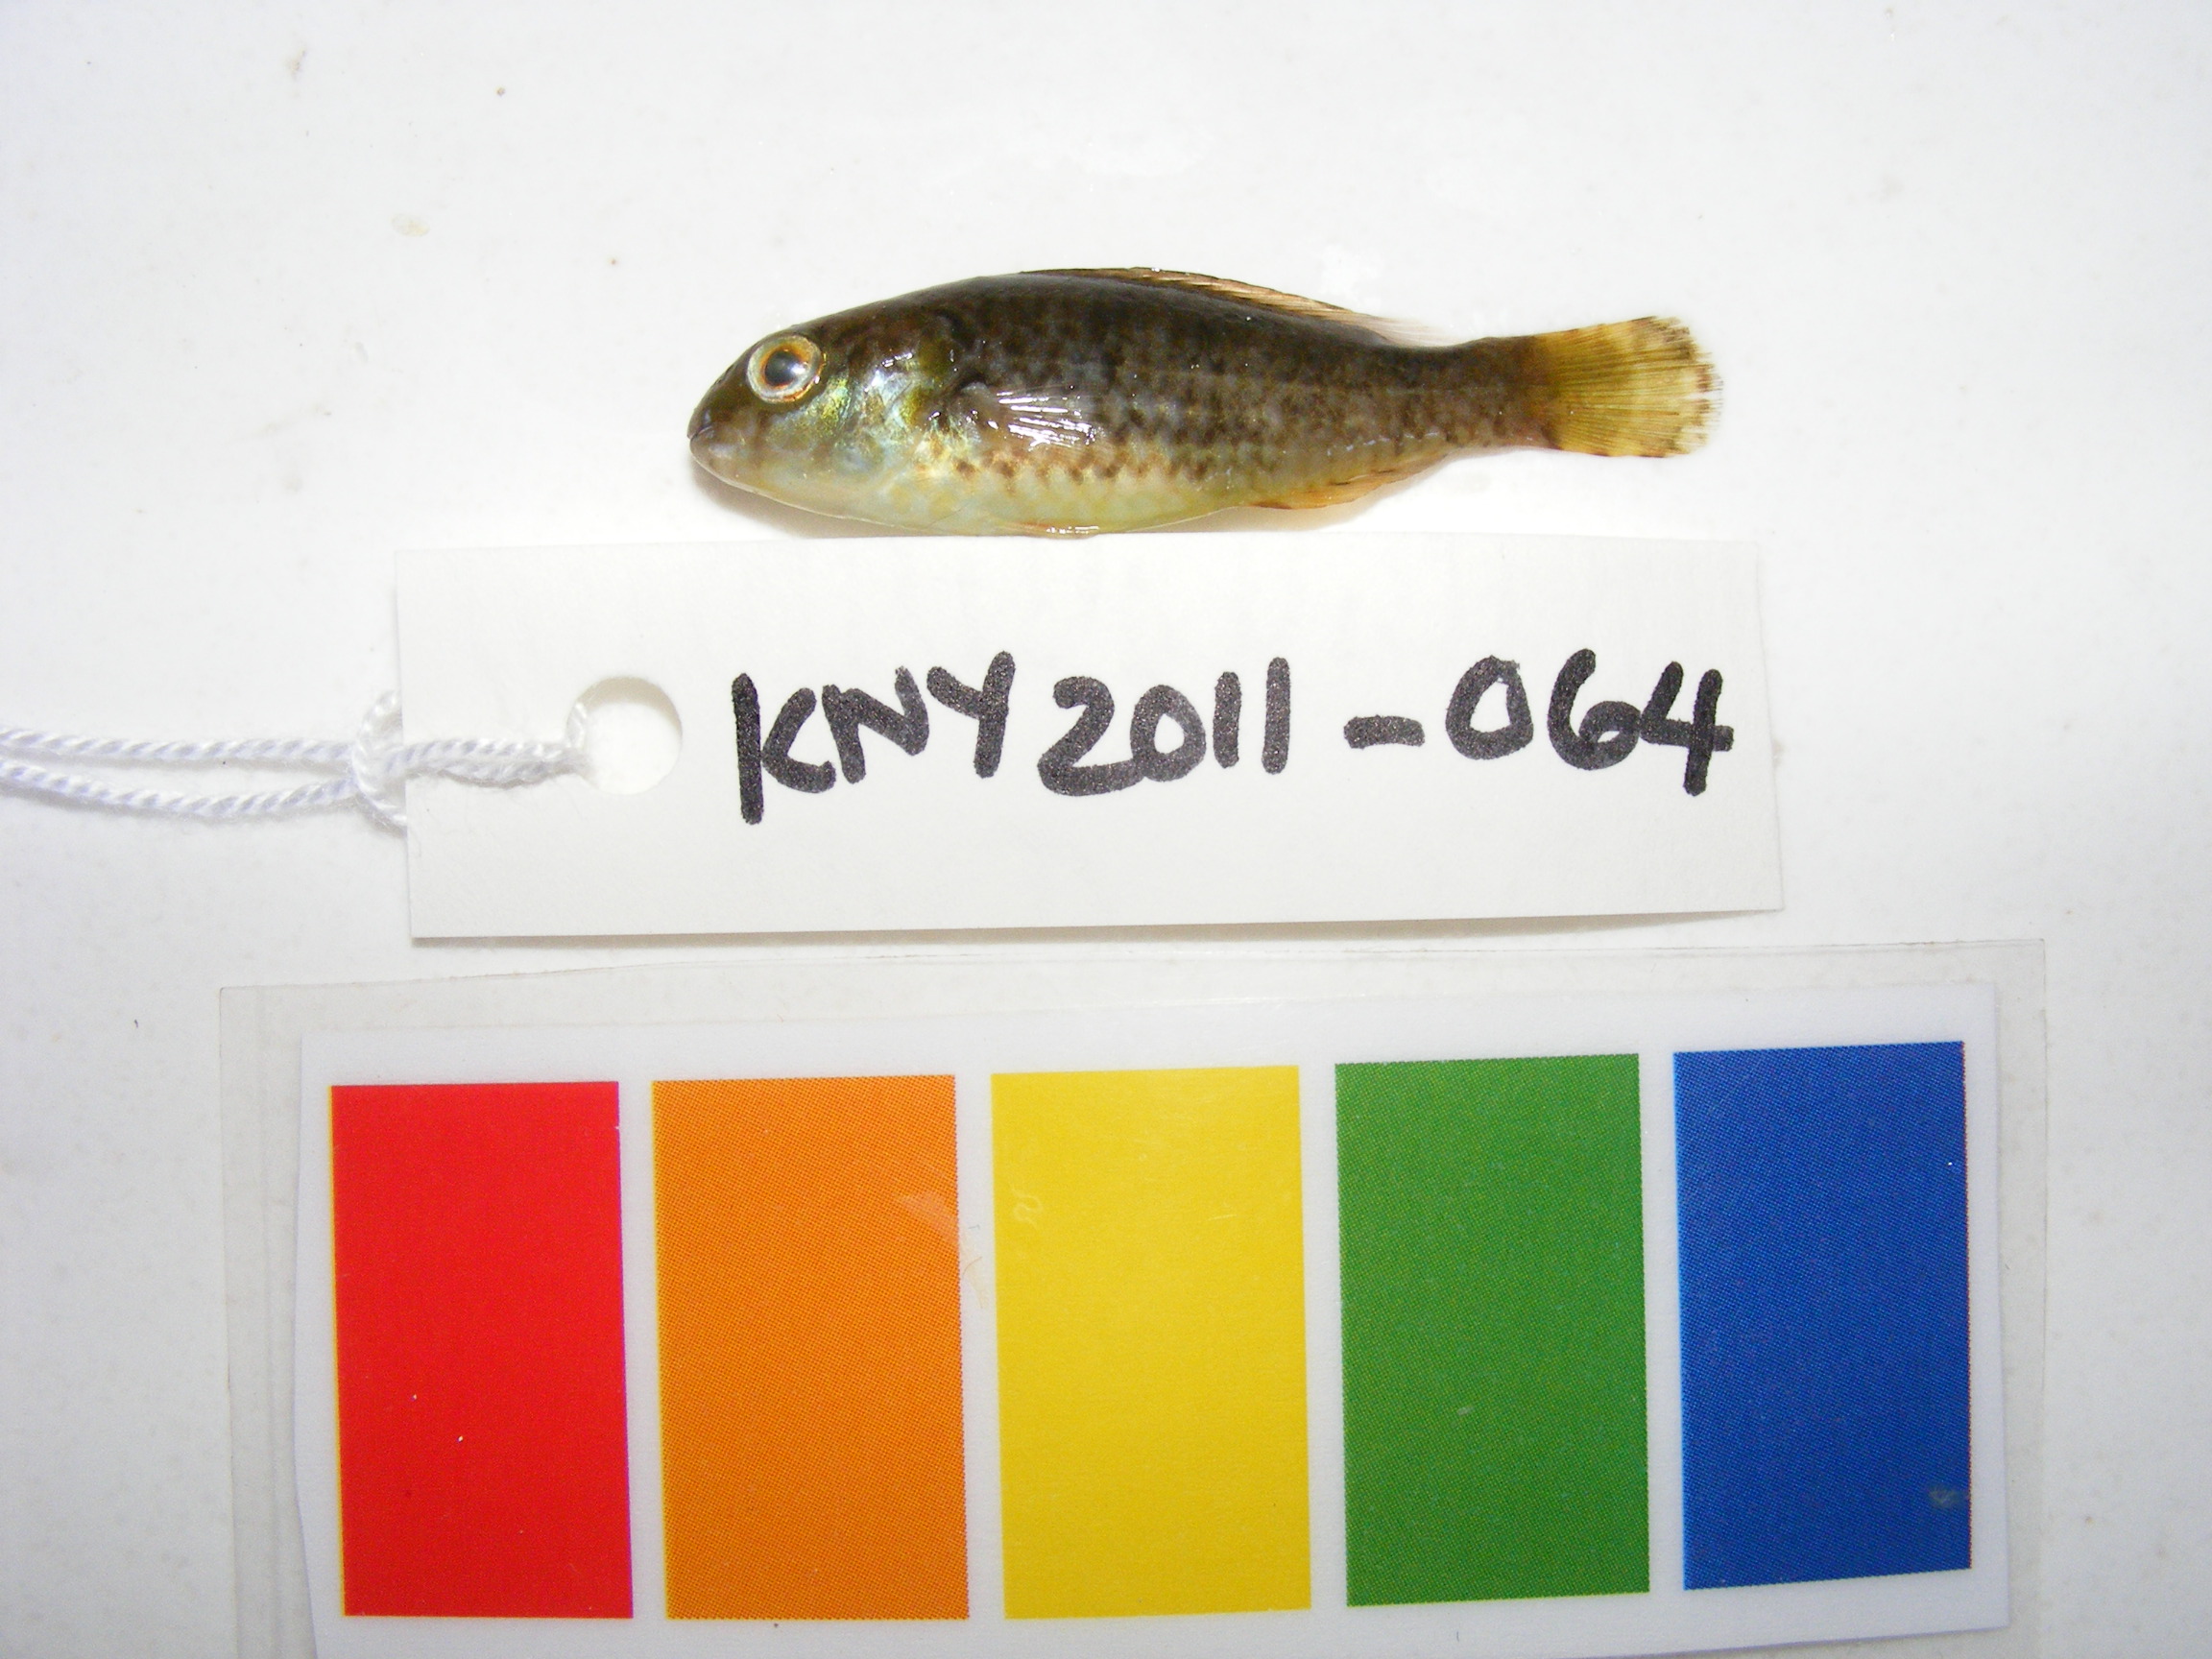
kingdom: Animalia
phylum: Chordata
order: Perciformes
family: Scaridae
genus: Leptoscarus
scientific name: Leptoscarus vaigiensis
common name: Marbled parrotfish
